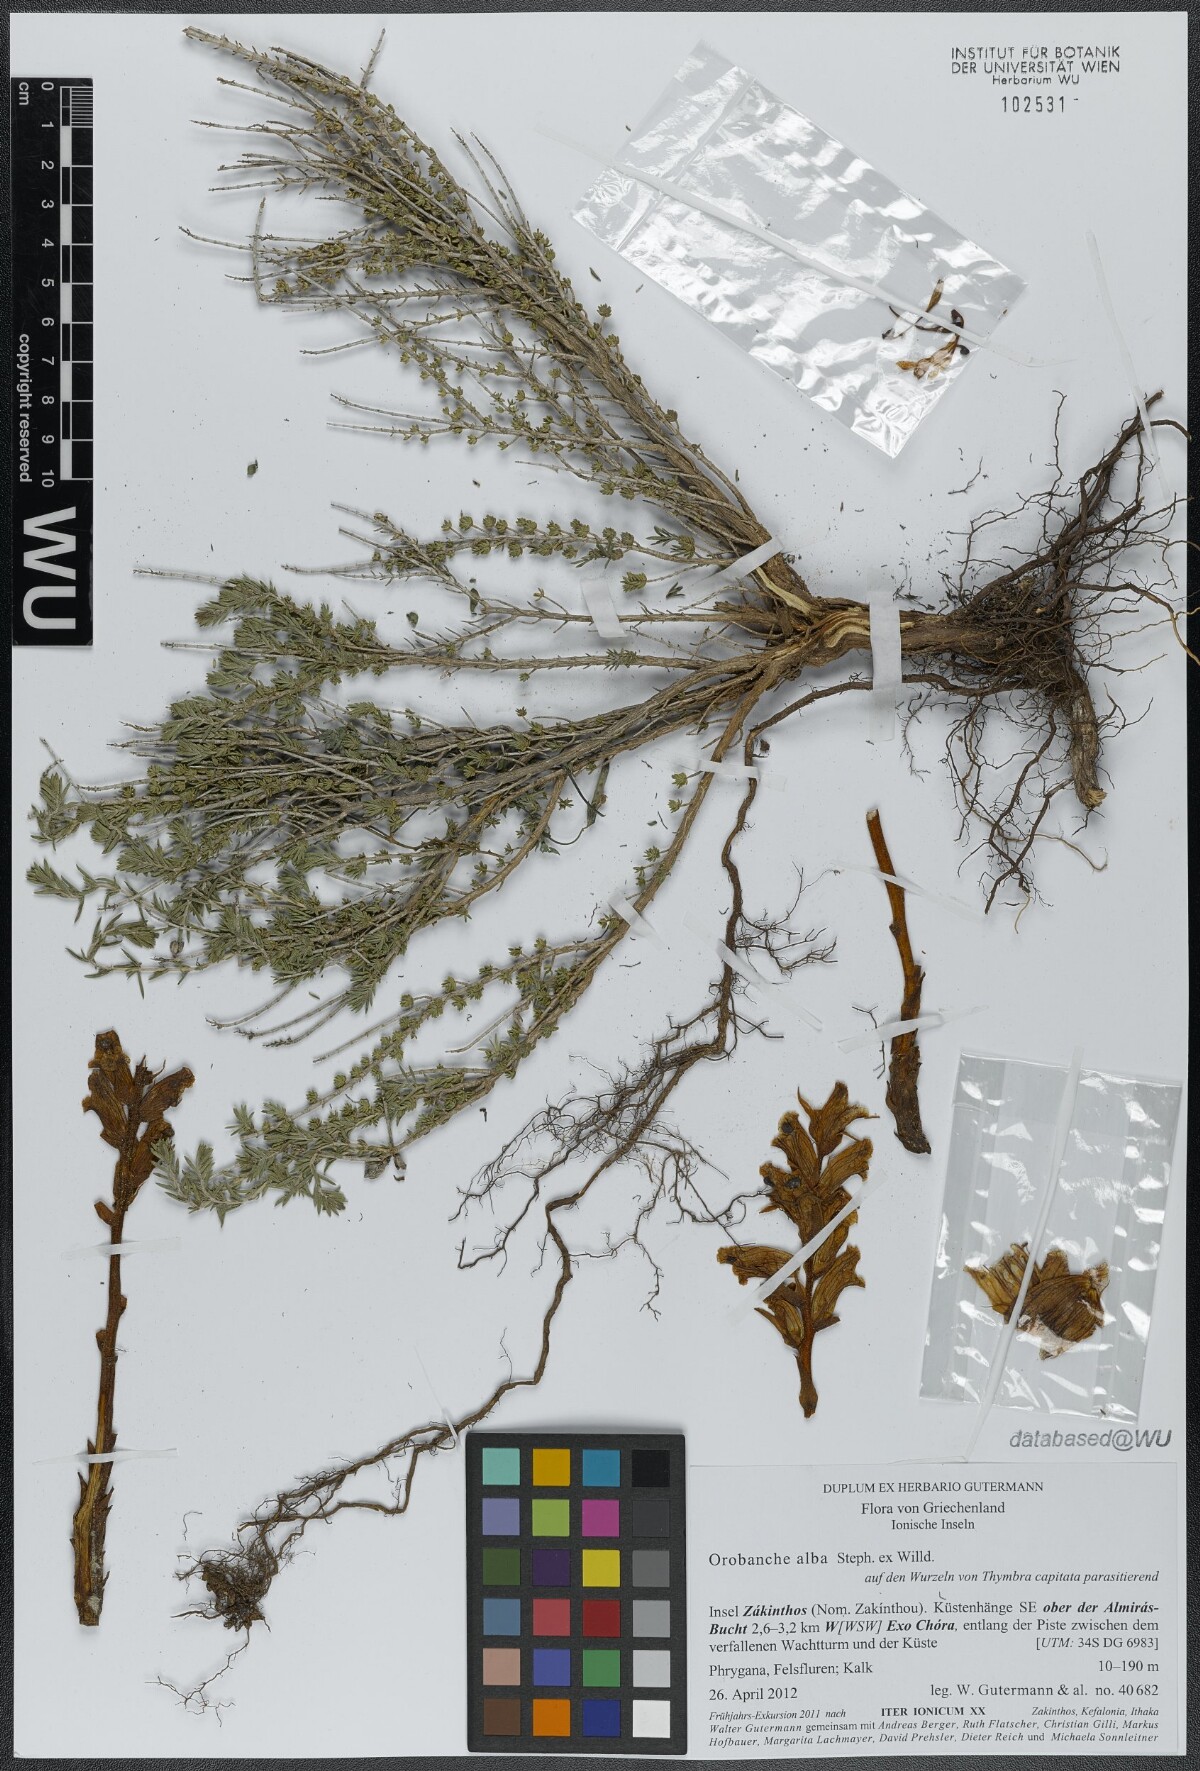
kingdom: Plantae
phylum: Tracheophyta
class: Magnoliopsida
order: Lamiales
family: Orobanchaceae
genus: Orobanche
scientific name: Orobanche alba
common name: Thyme broomrape
